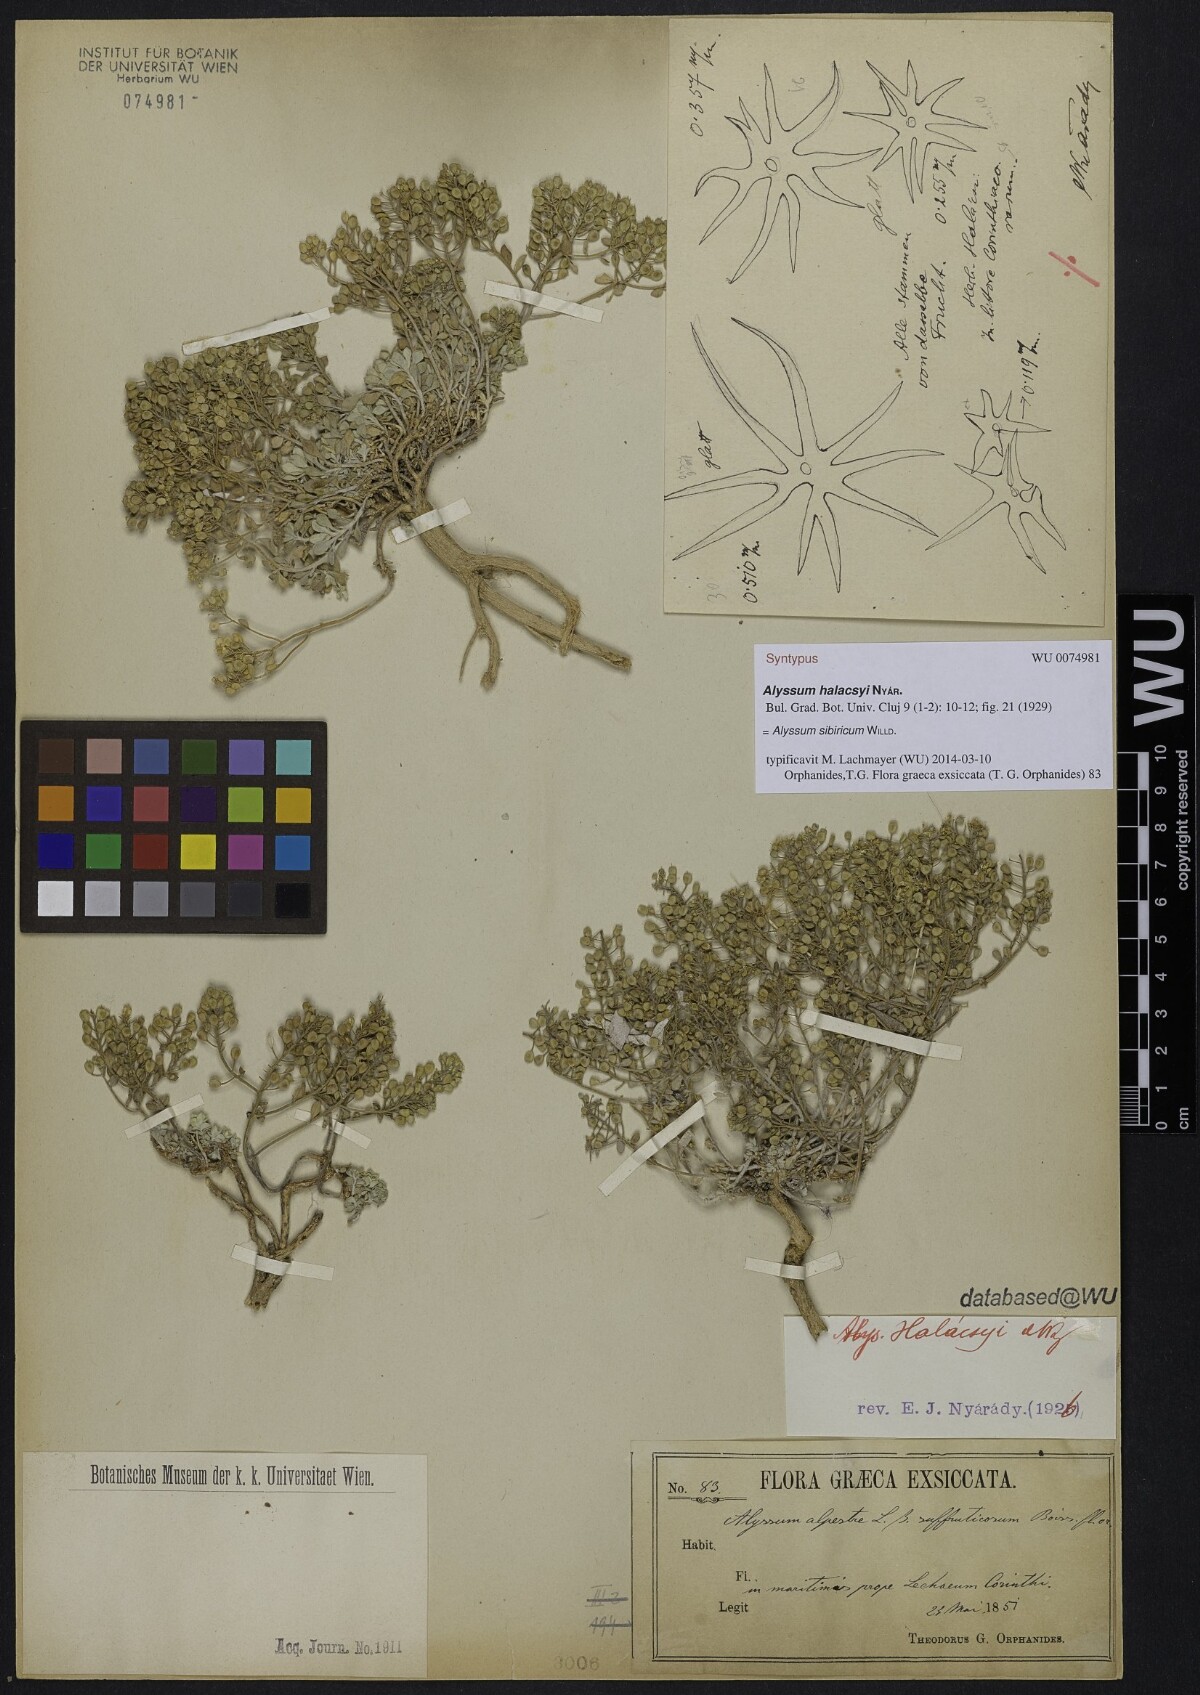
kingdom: Plantae
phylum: Tracheophyta
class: Magnoliopsida
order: Brassicales
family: Brassicaceae
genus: Odontarrhena
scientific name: Odontarrhena sibirica
